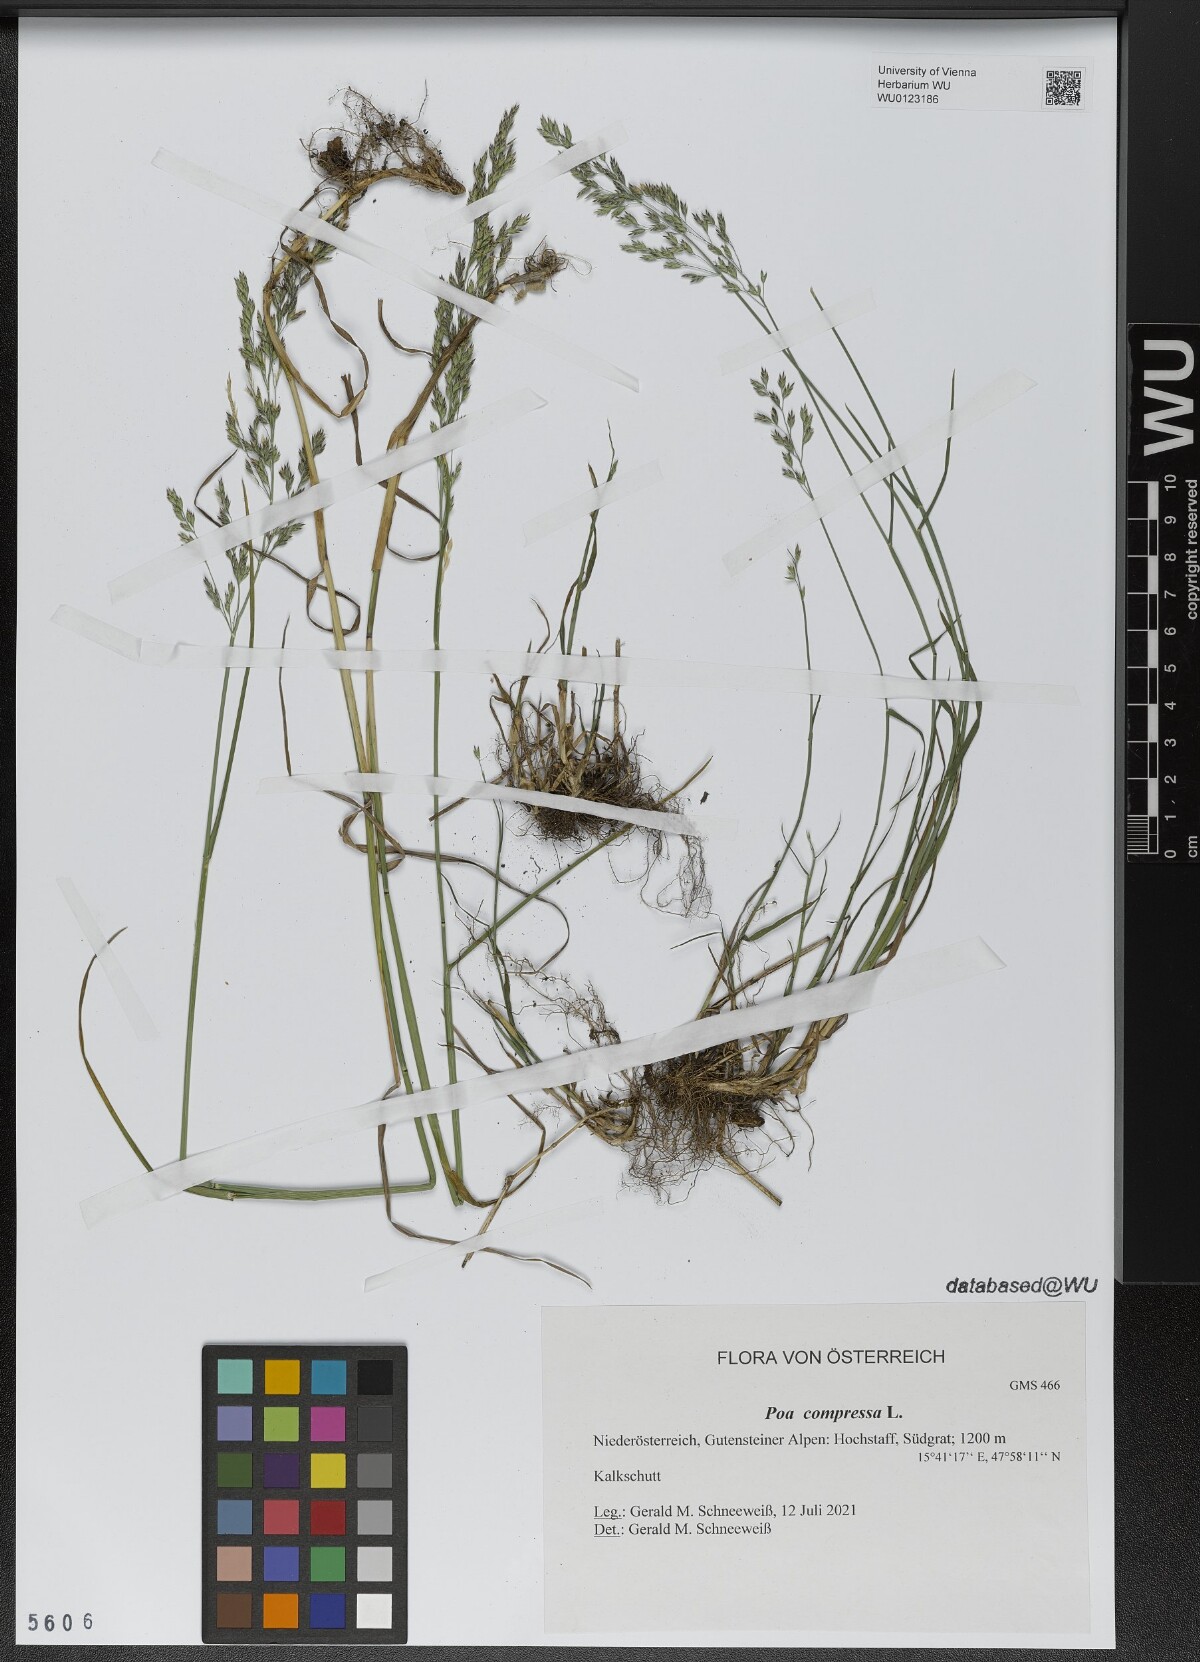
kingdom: Plantae
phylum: Tracheophyta
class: Liliopsida
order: Poales
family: Poaceae
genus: Poa
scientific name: Poa compressa
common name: Canada bluegrass
